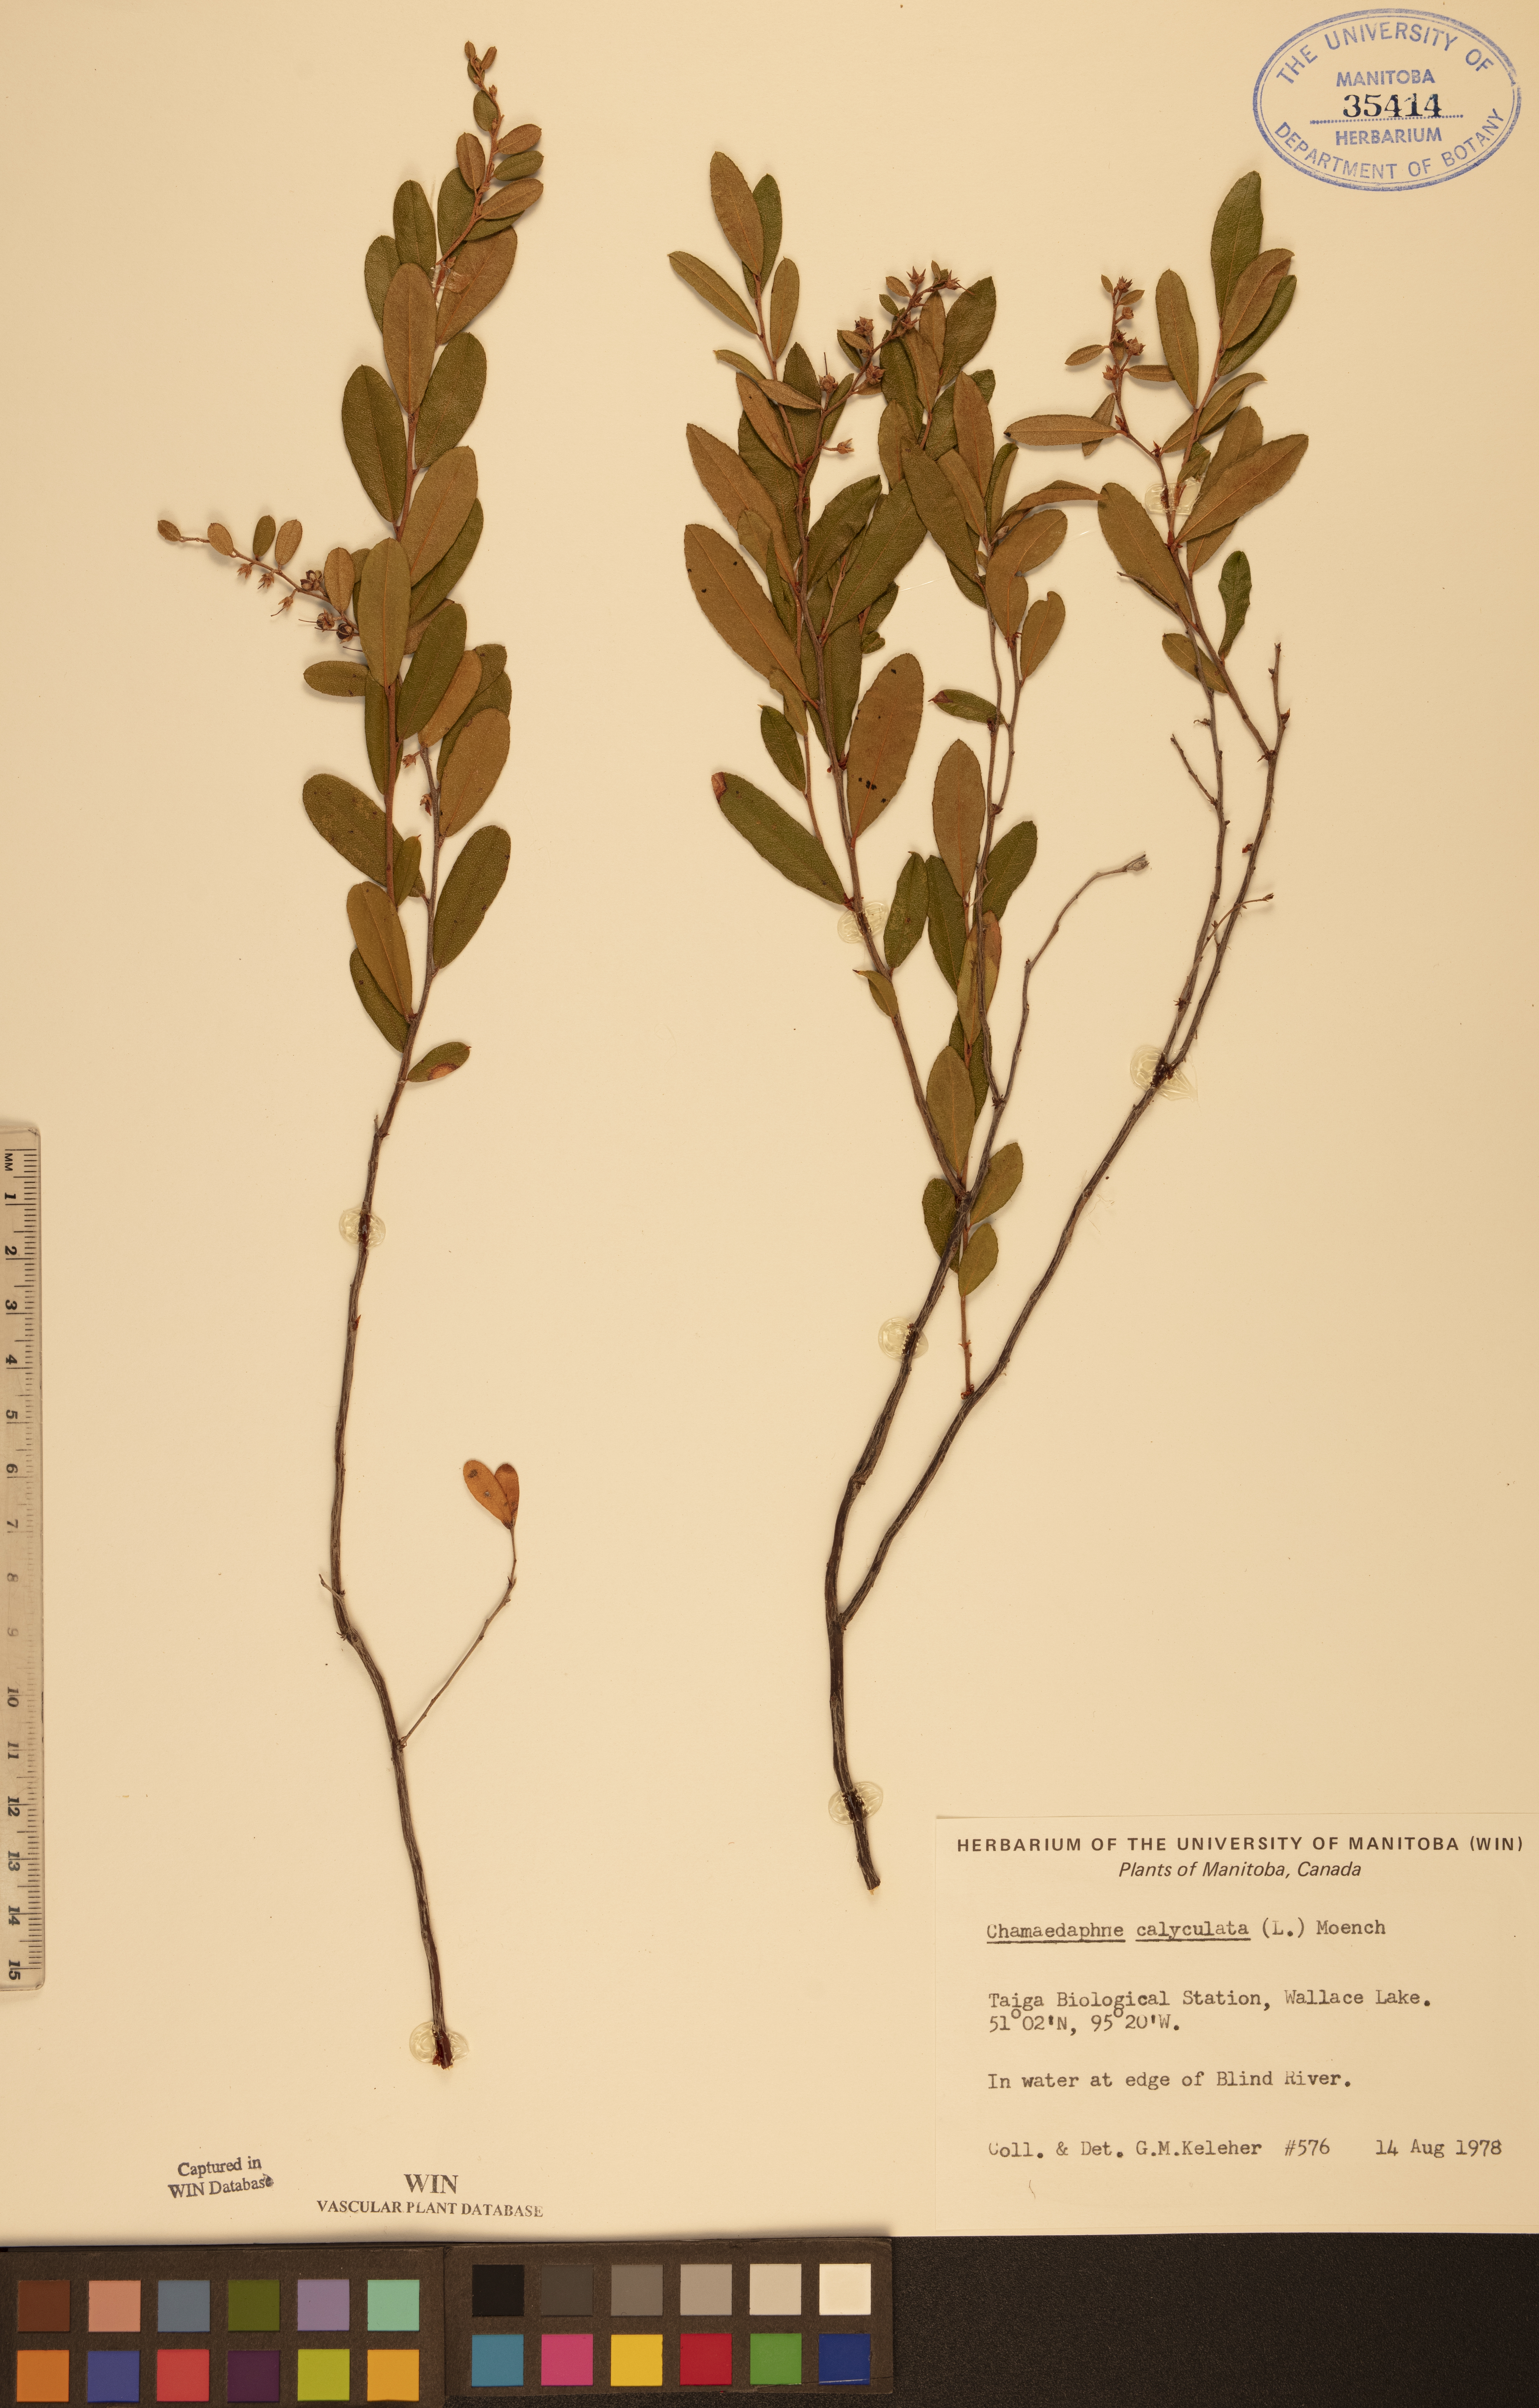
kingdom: Plantae
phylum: Tracheophyta
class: Magnoliopsida
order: Ericales
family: Ericaceae
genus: Chamaedaphne
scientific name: Chamaedaphne calyculata
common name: Leatherleaf
